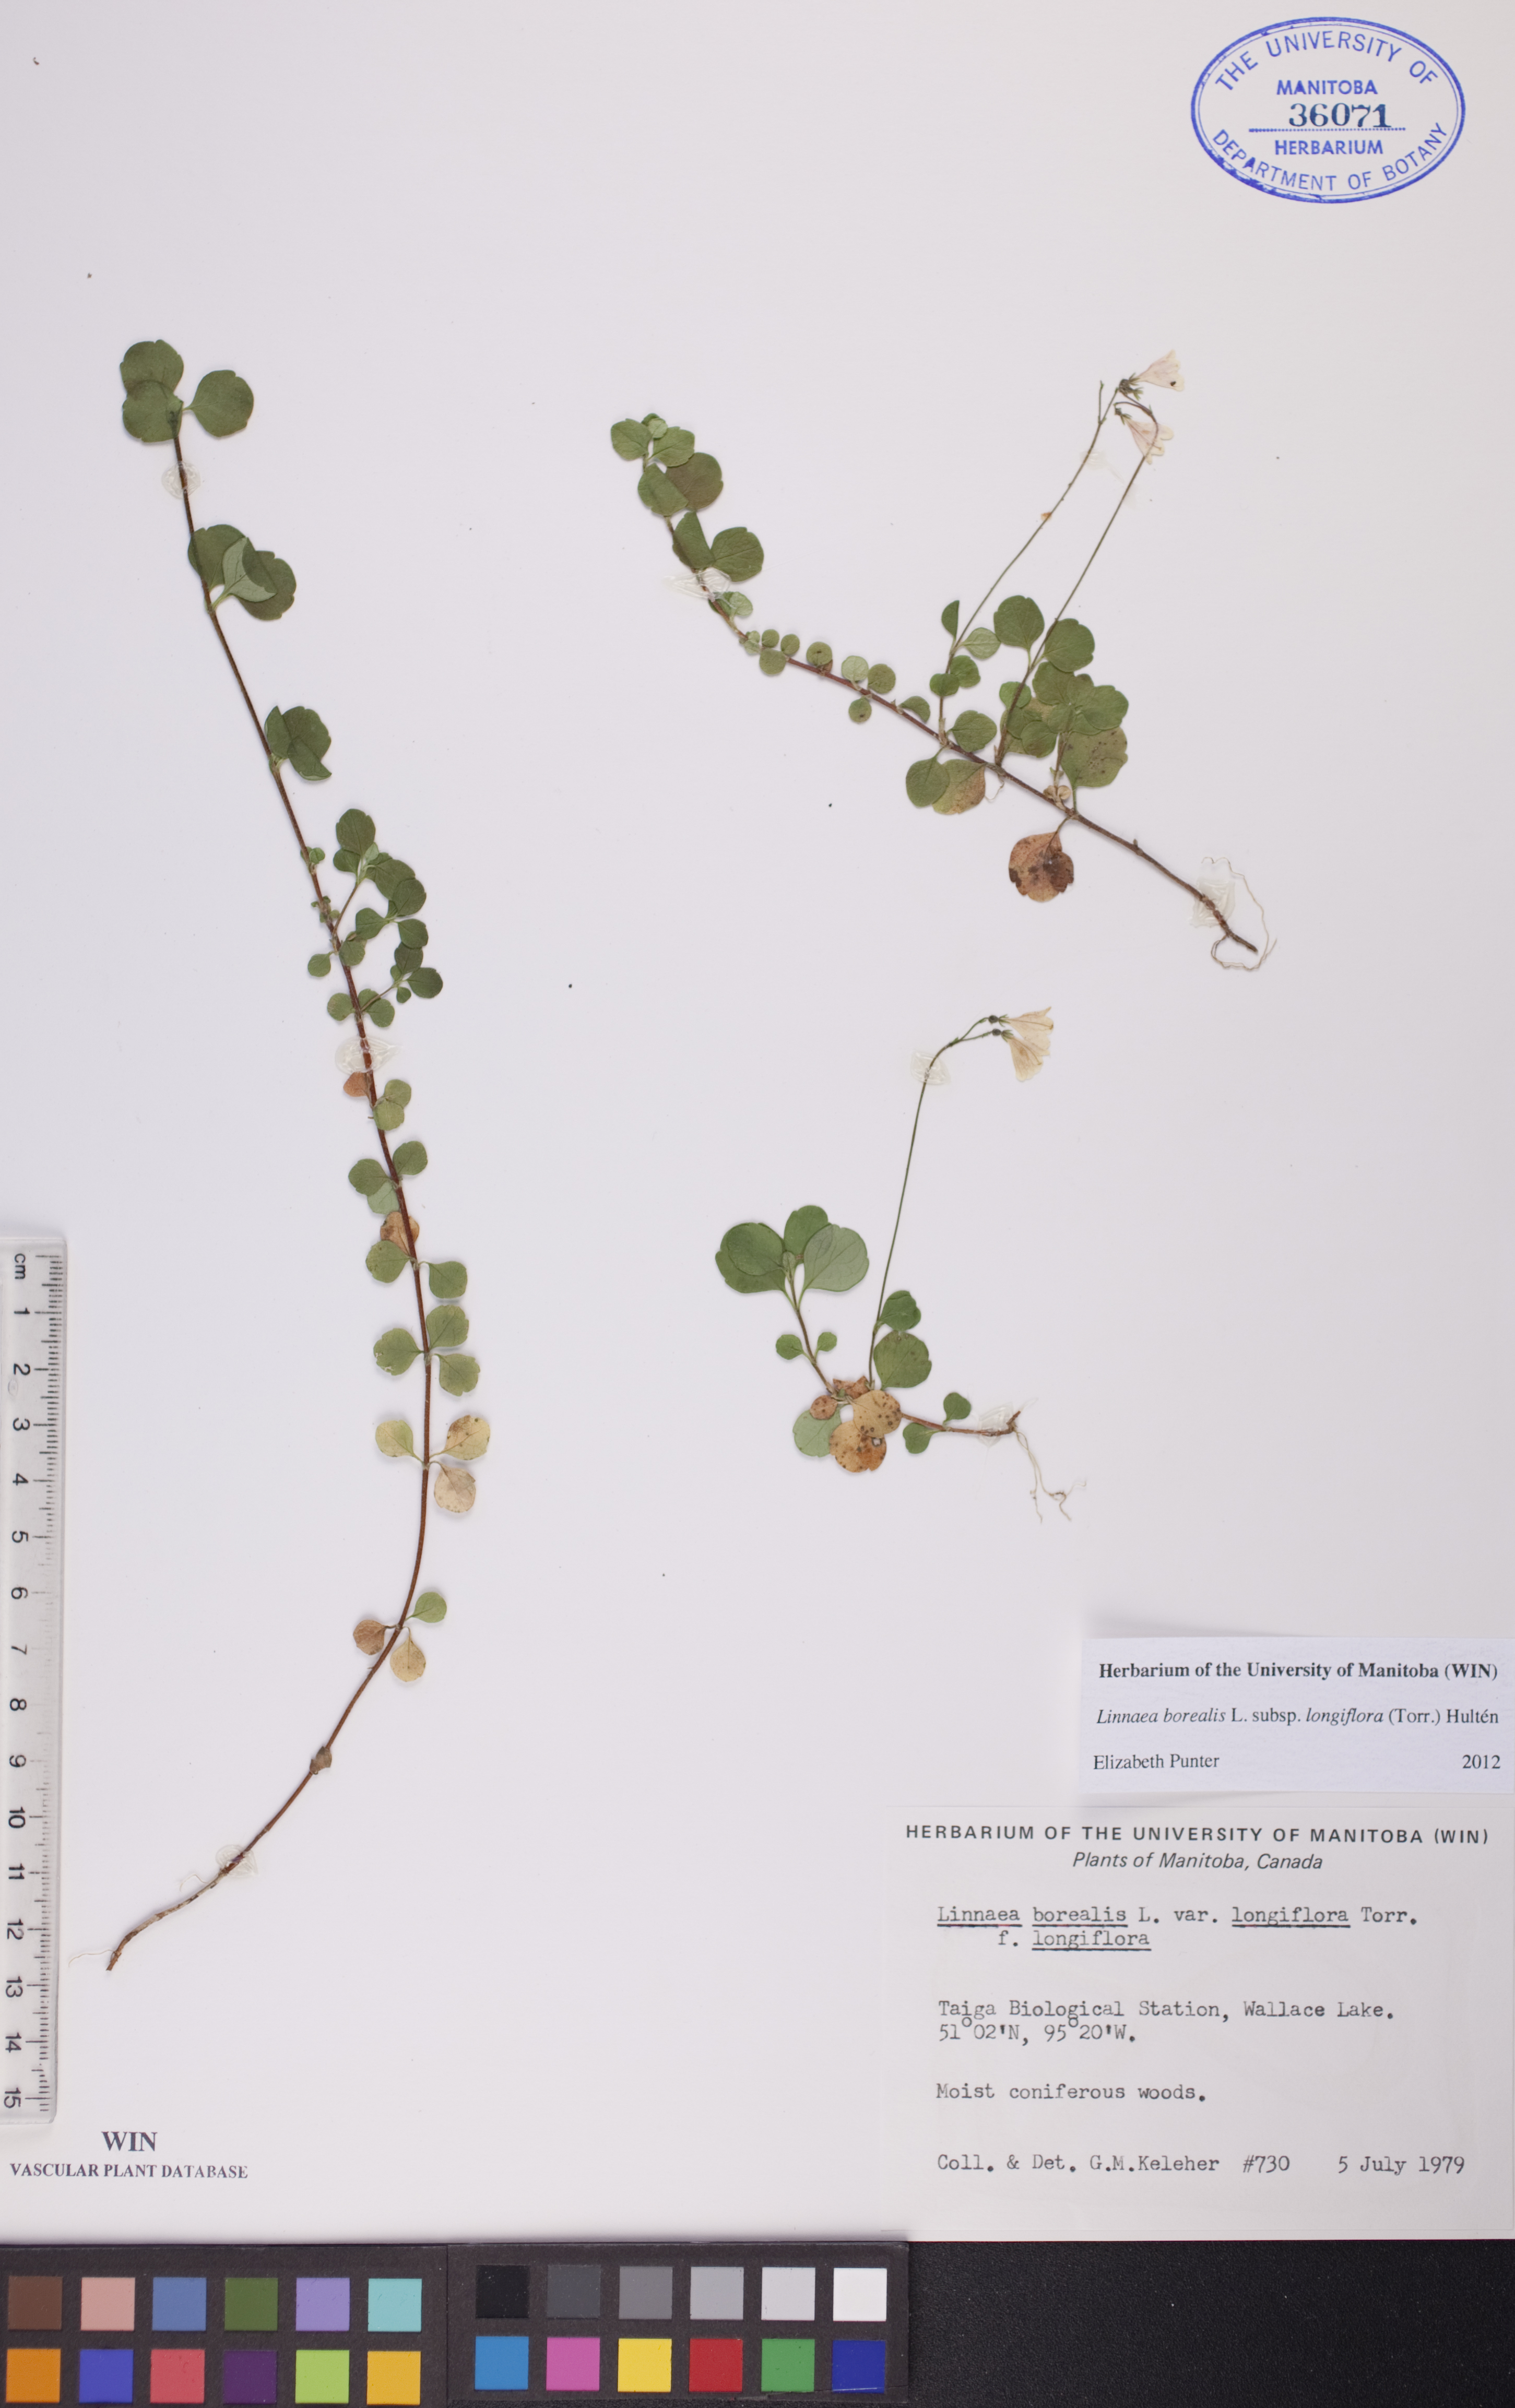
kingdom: Plantae
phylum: Tracheophyta
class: Magnoliopsida
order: Dipsacales
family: Caprifoliaceae
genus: Linnaea
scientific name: Linnaea borealis
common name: Twinflower
